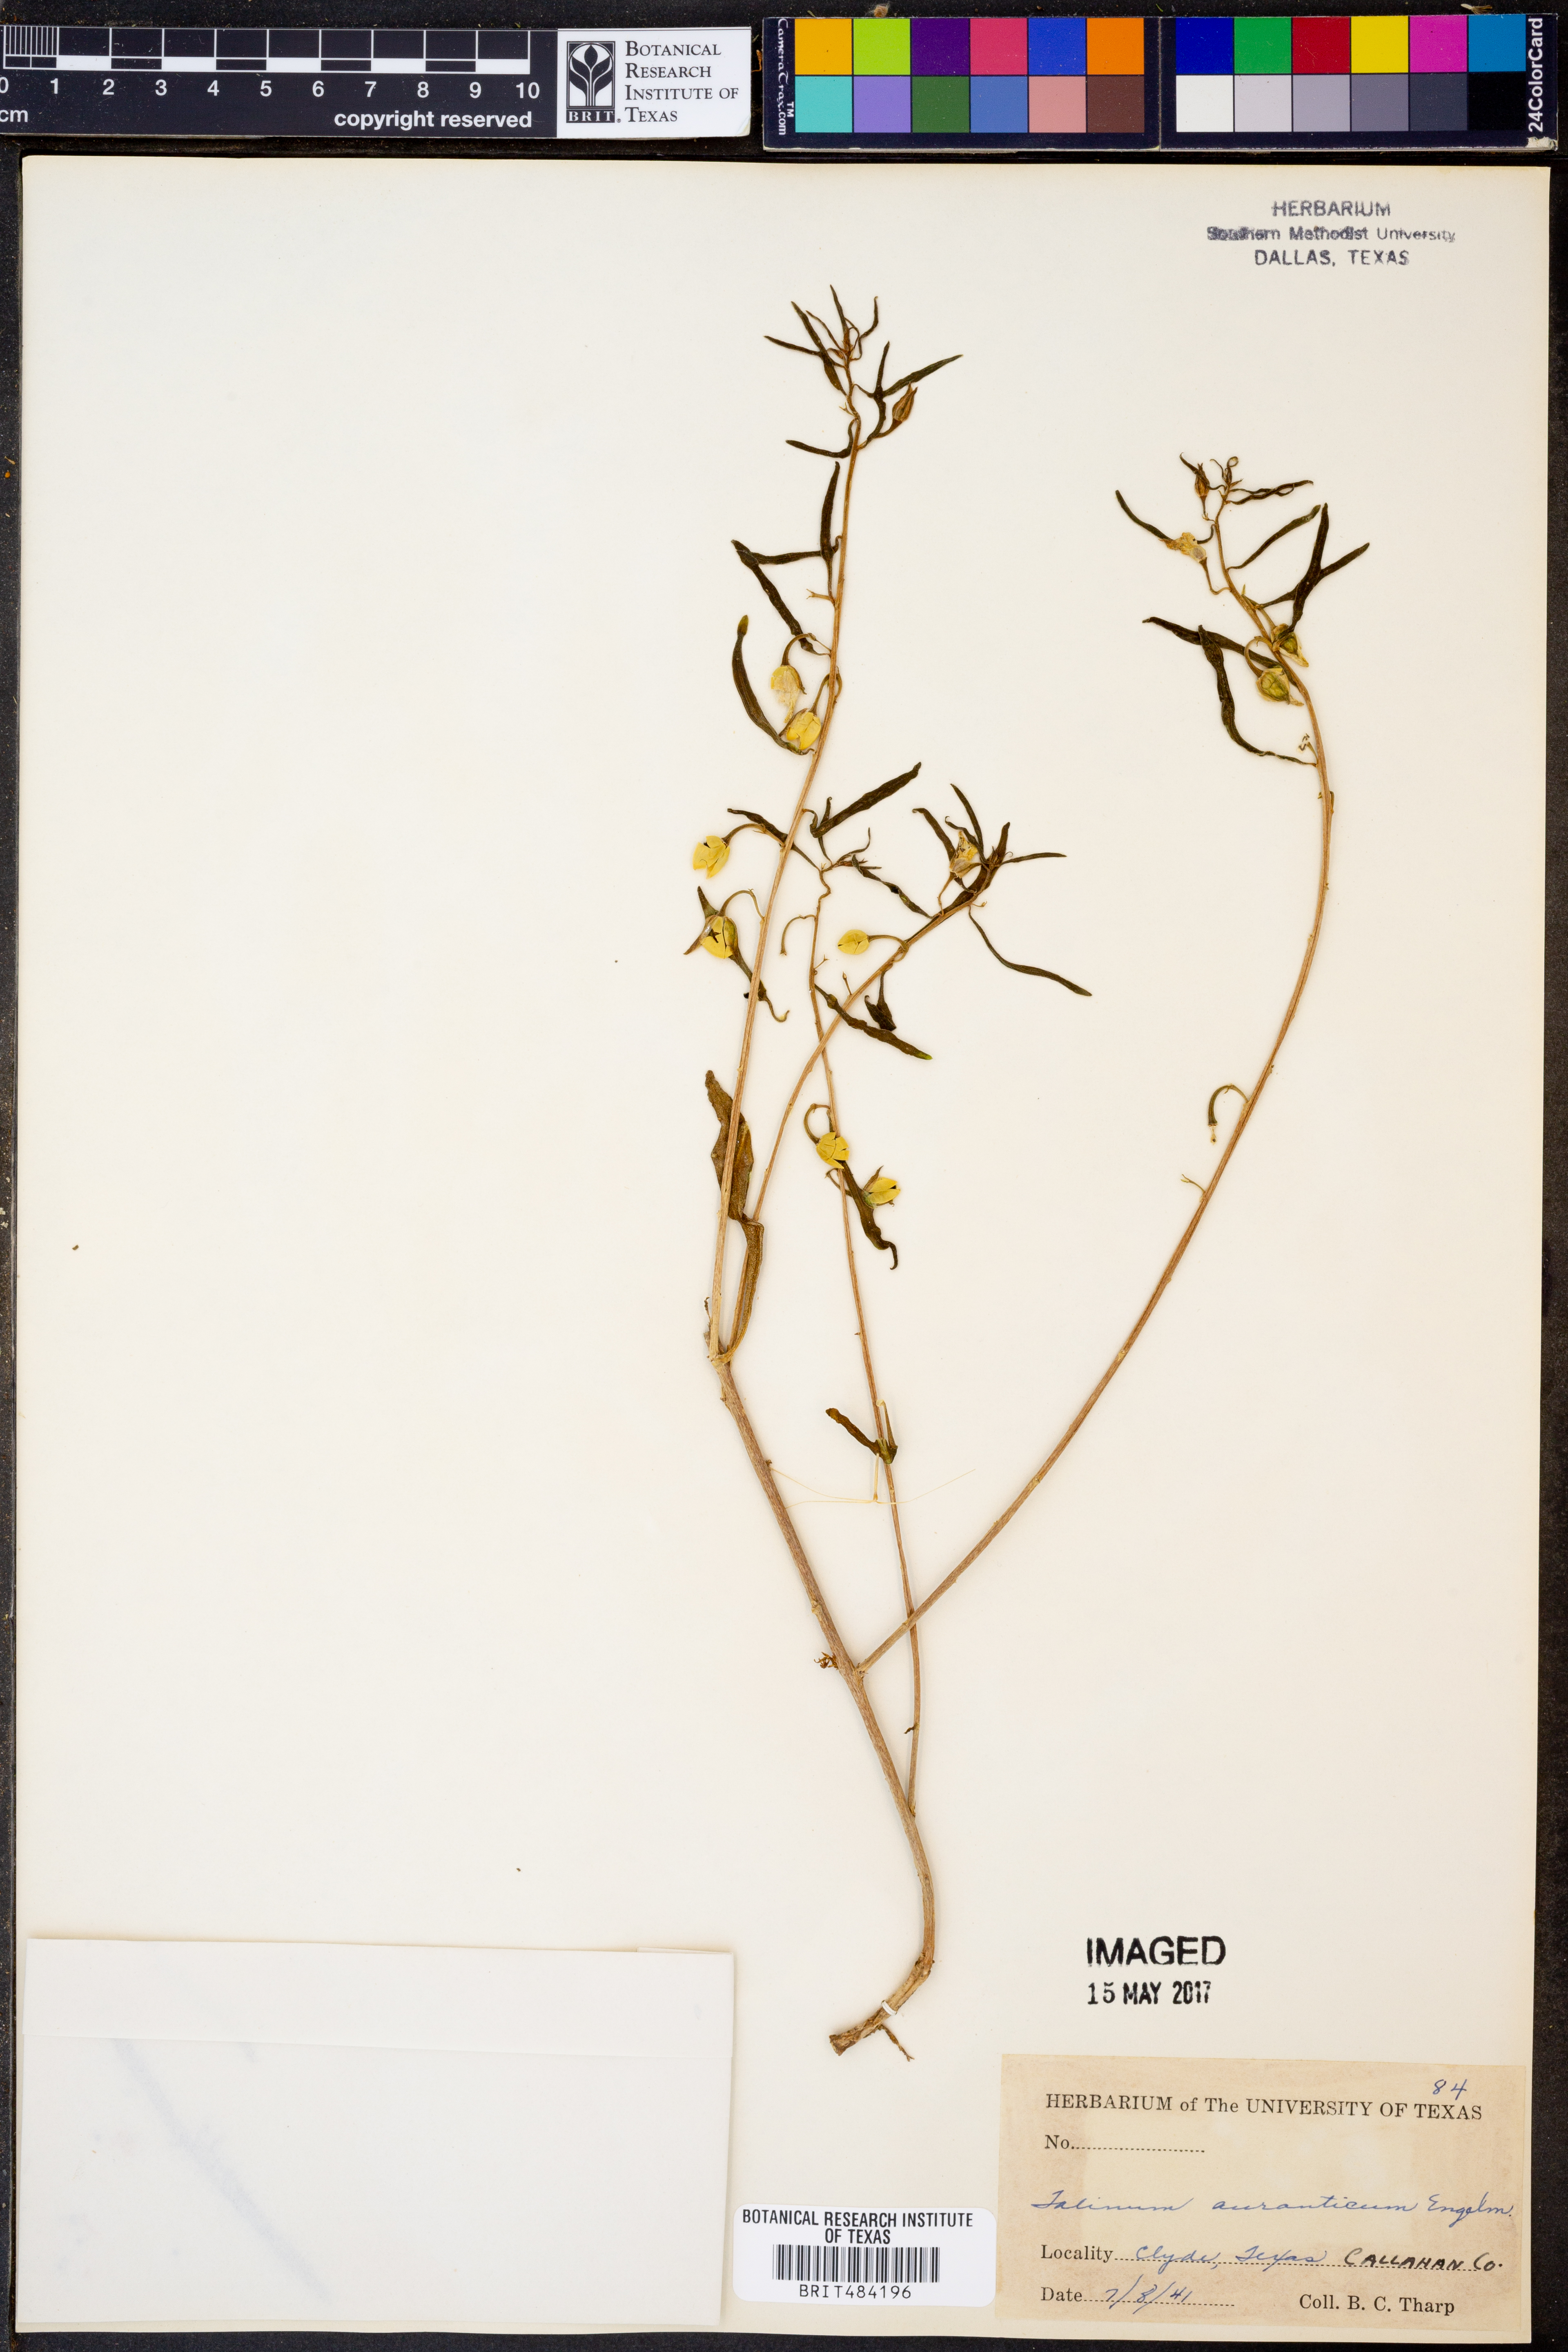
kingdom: Plantae
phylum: Tracheophyta
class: Magnoliopsida
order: Caryophyllales
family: Montiaceae
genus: Phemeranthus
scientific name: Phemeranthus aurantiacus
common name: Orange fameflower
